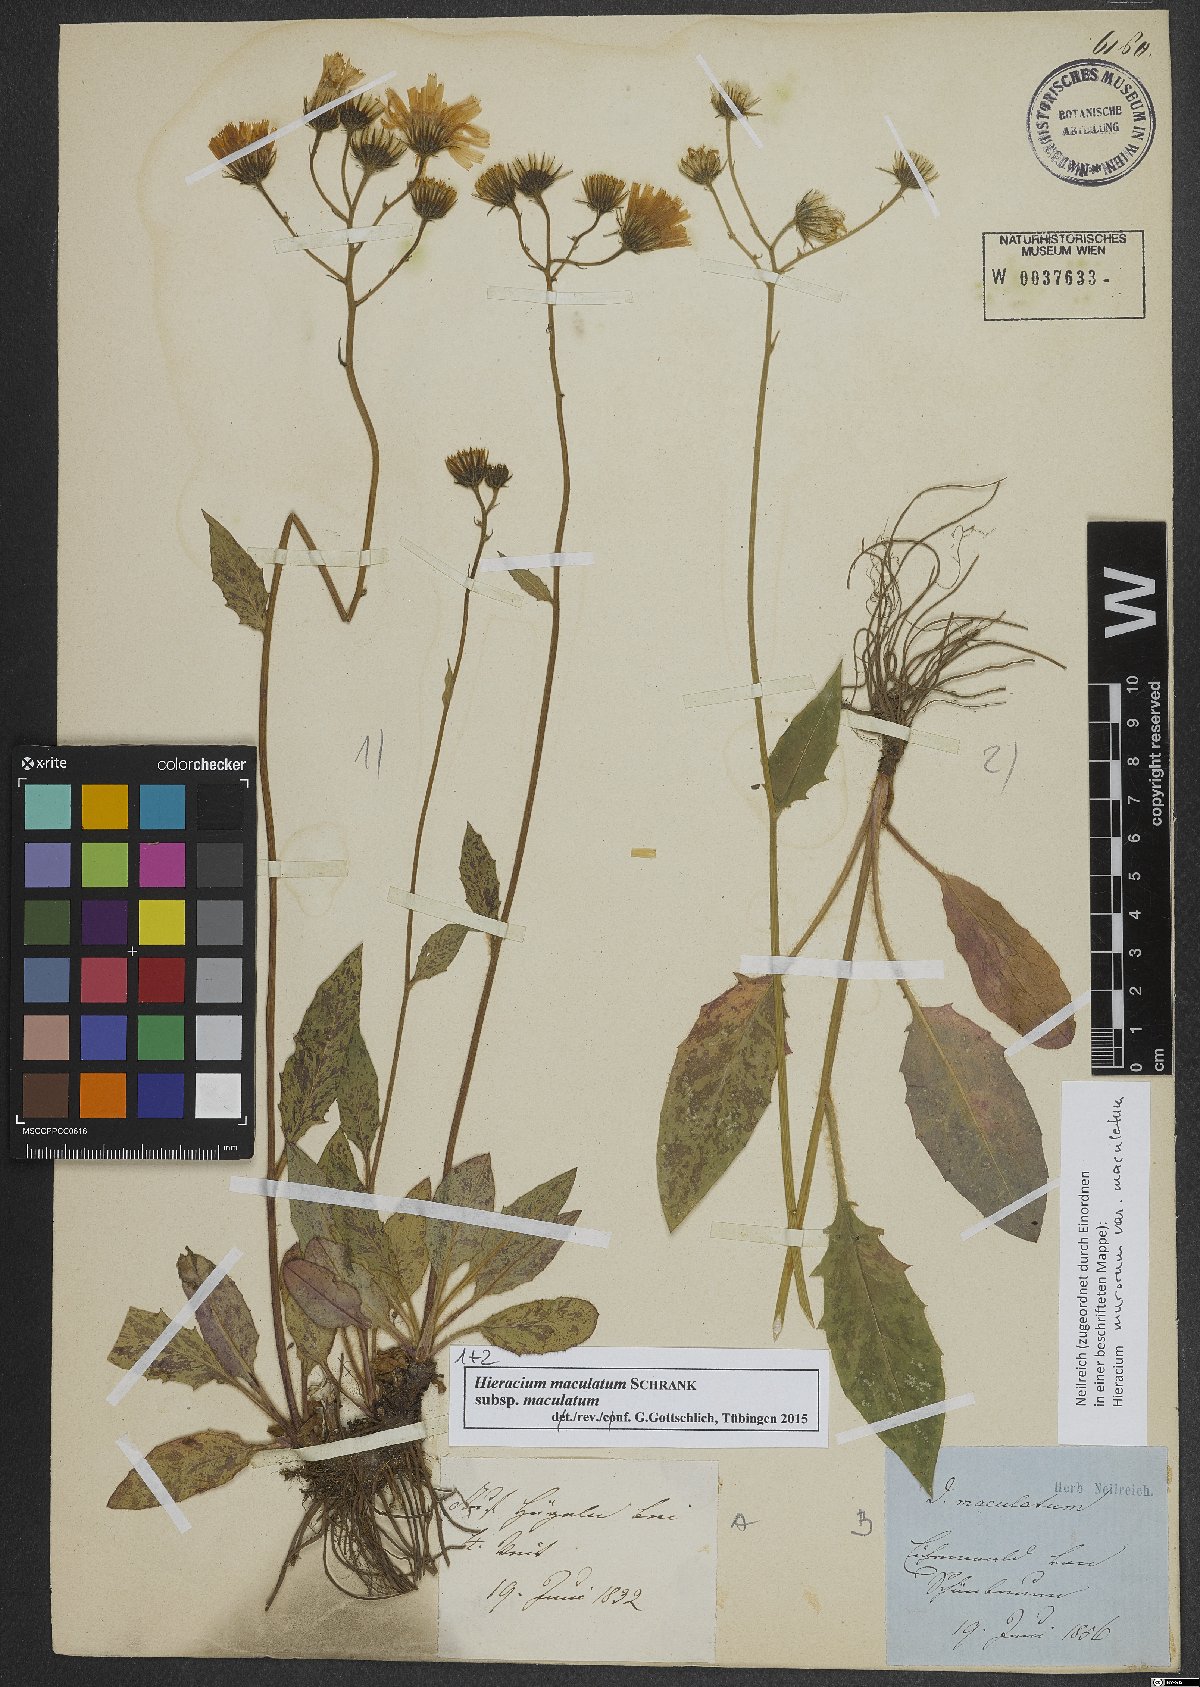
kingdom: Plantae
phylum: Tracheophyta
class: Magnoliopsida
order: Asterales
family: Asteraceae
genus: Hieracium
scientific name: Hieracium maculatum
